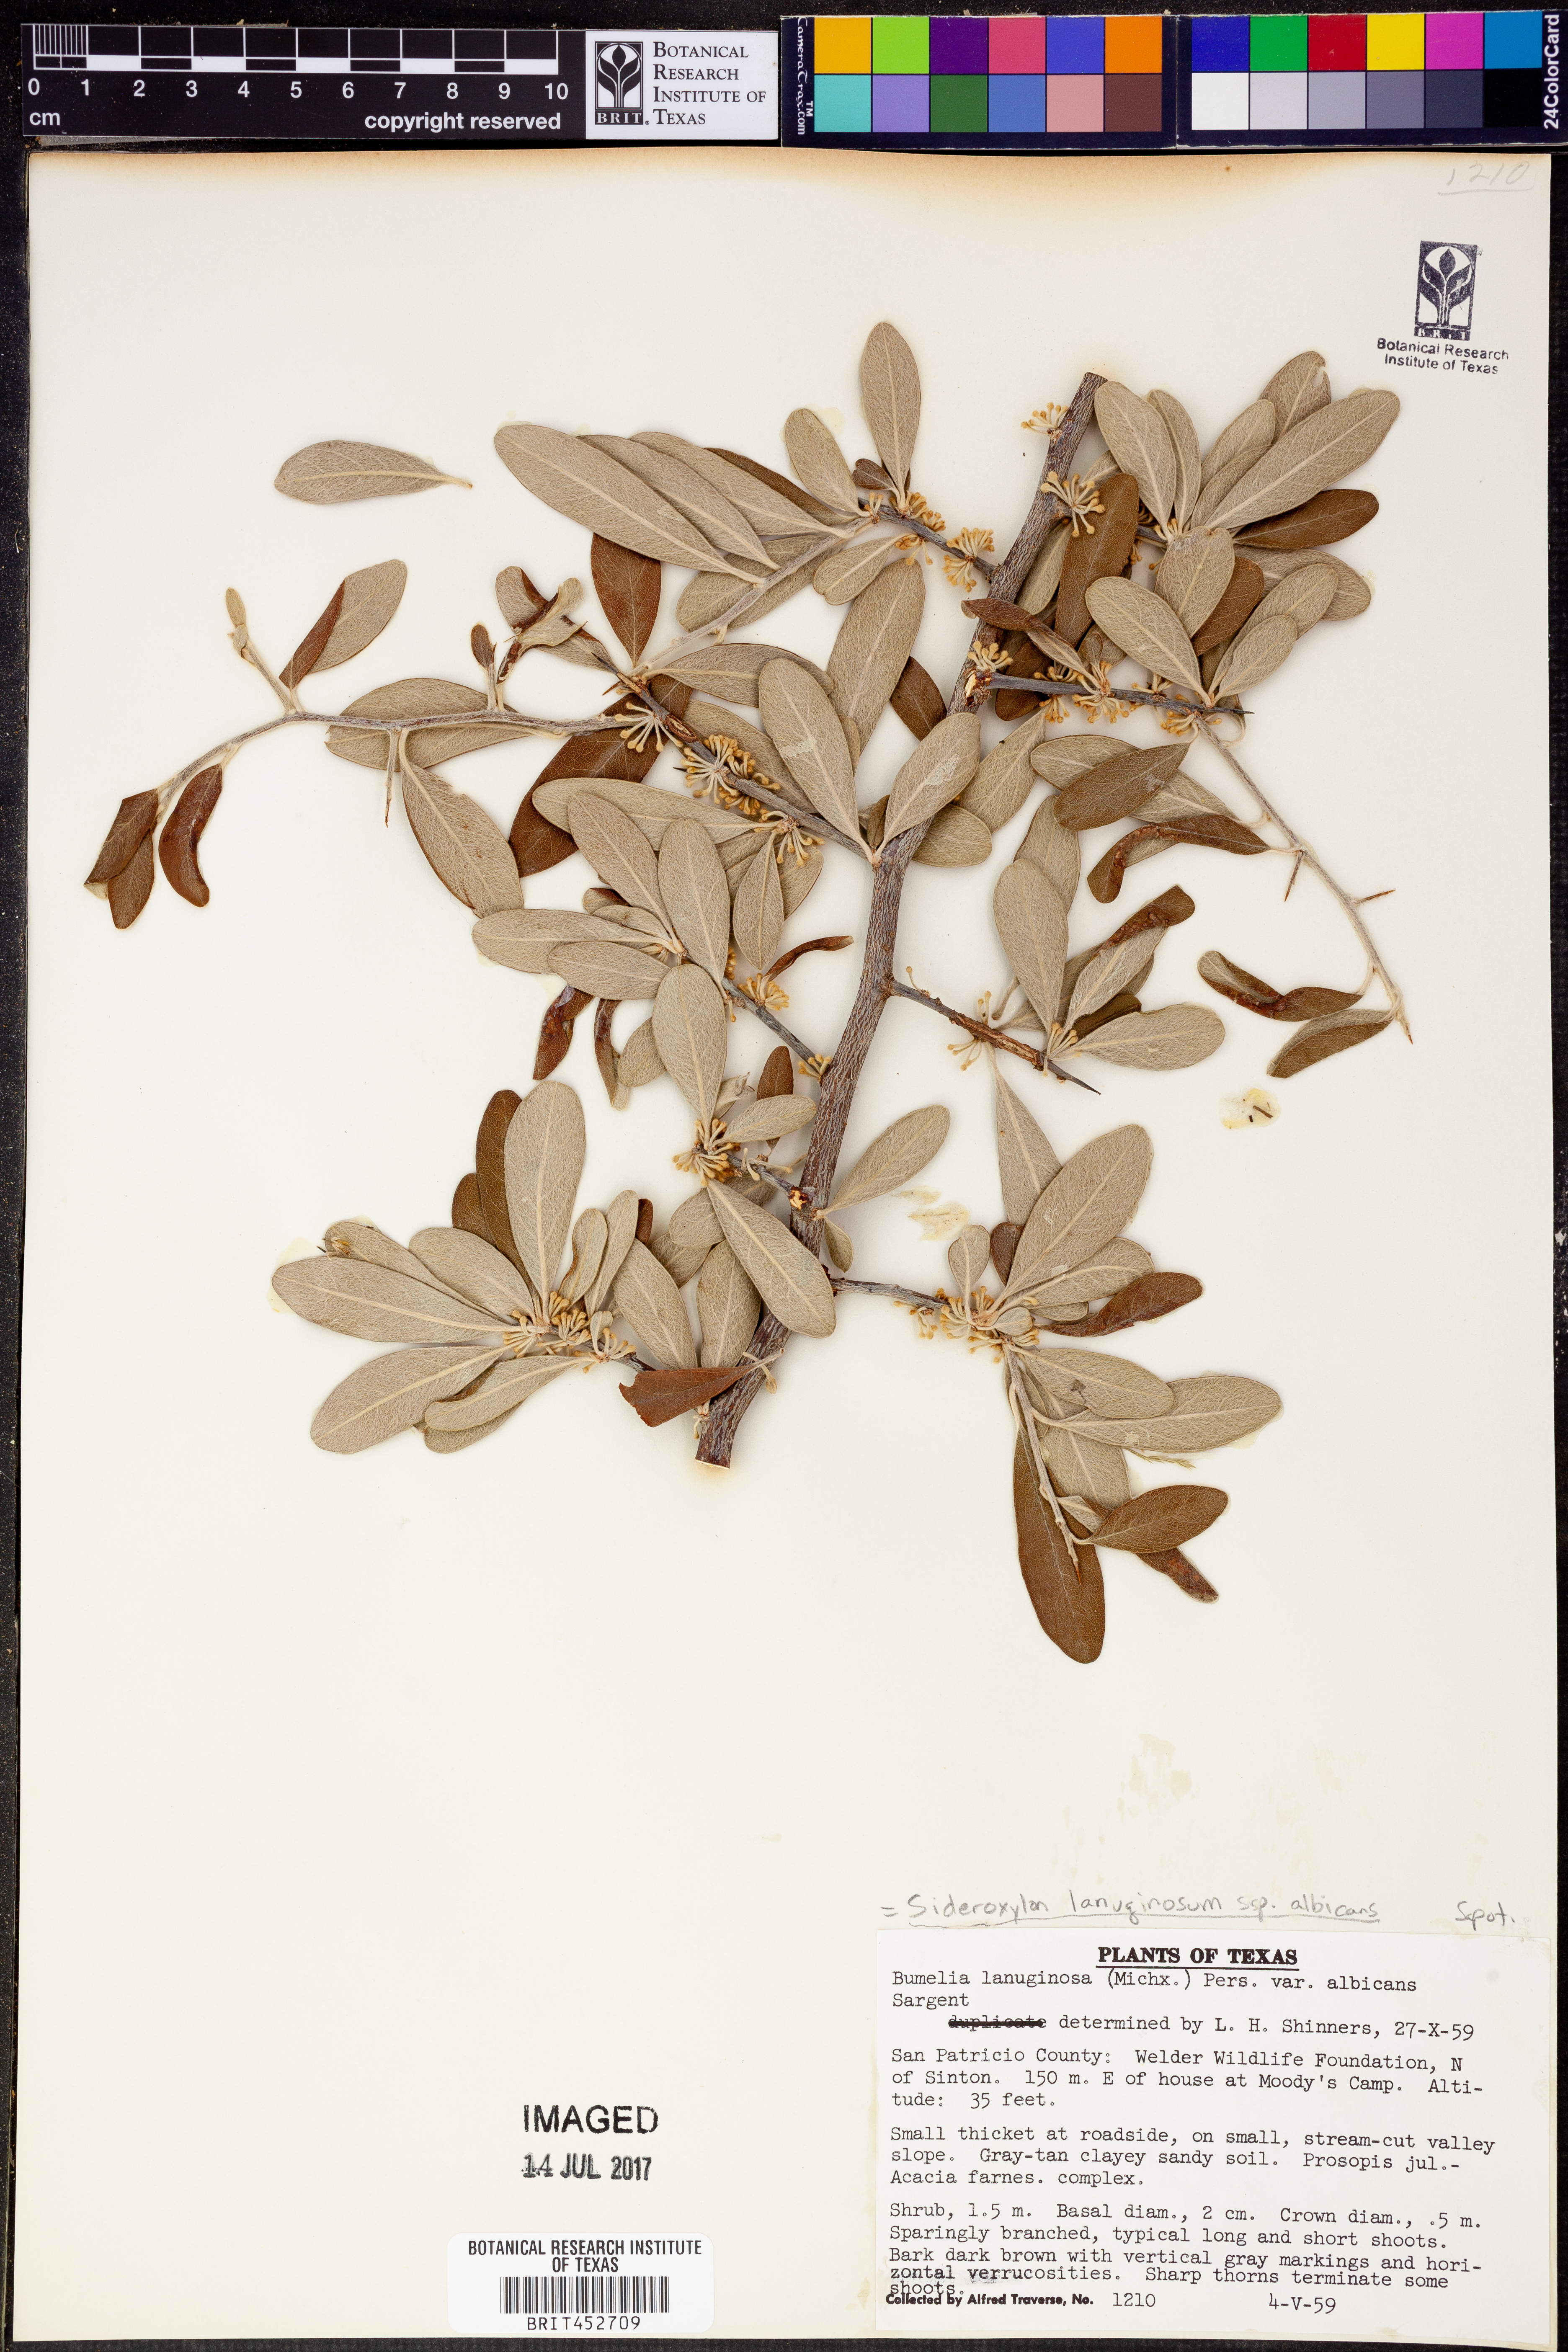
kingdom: Plantae
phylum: Tracheophyta
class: Magnoliopsida
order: Ericales
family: Sapotaceae
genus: Sideroxylon
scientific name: Sideroxylon lanuginosum
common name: Chittamwood
